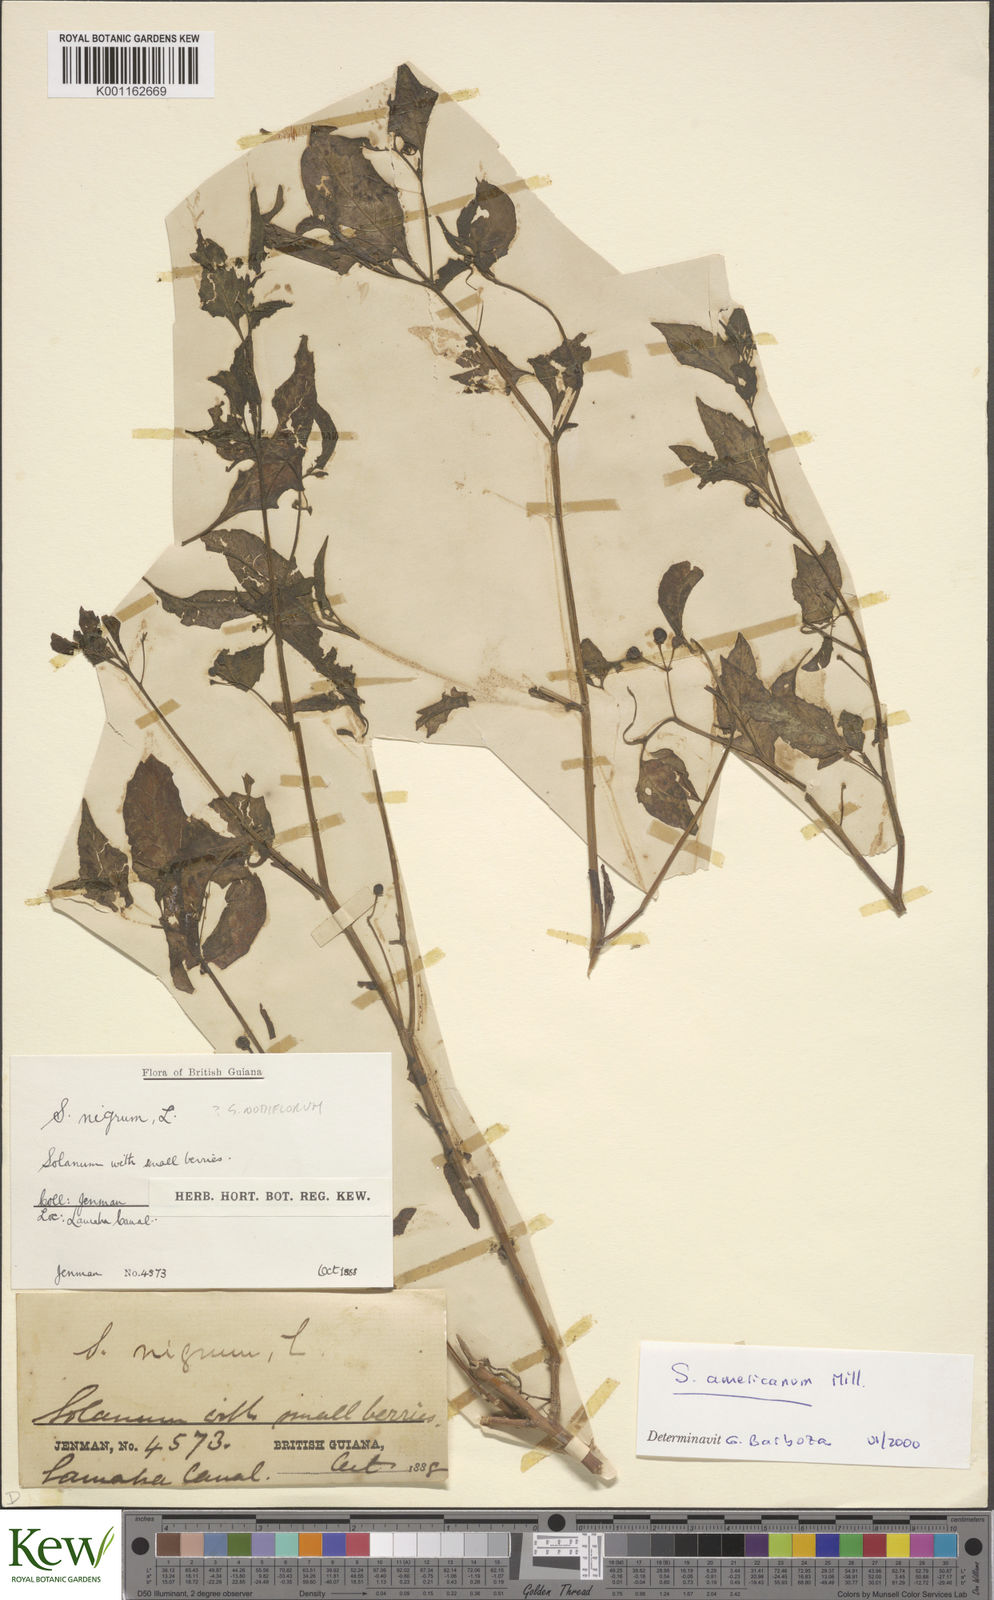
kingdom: Plantae
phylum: Tracheophyta
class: Magnoliopsida
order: Solanales
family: Solanaceae
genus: Solanum
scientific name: Solanum americanum
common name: American black nightshade
